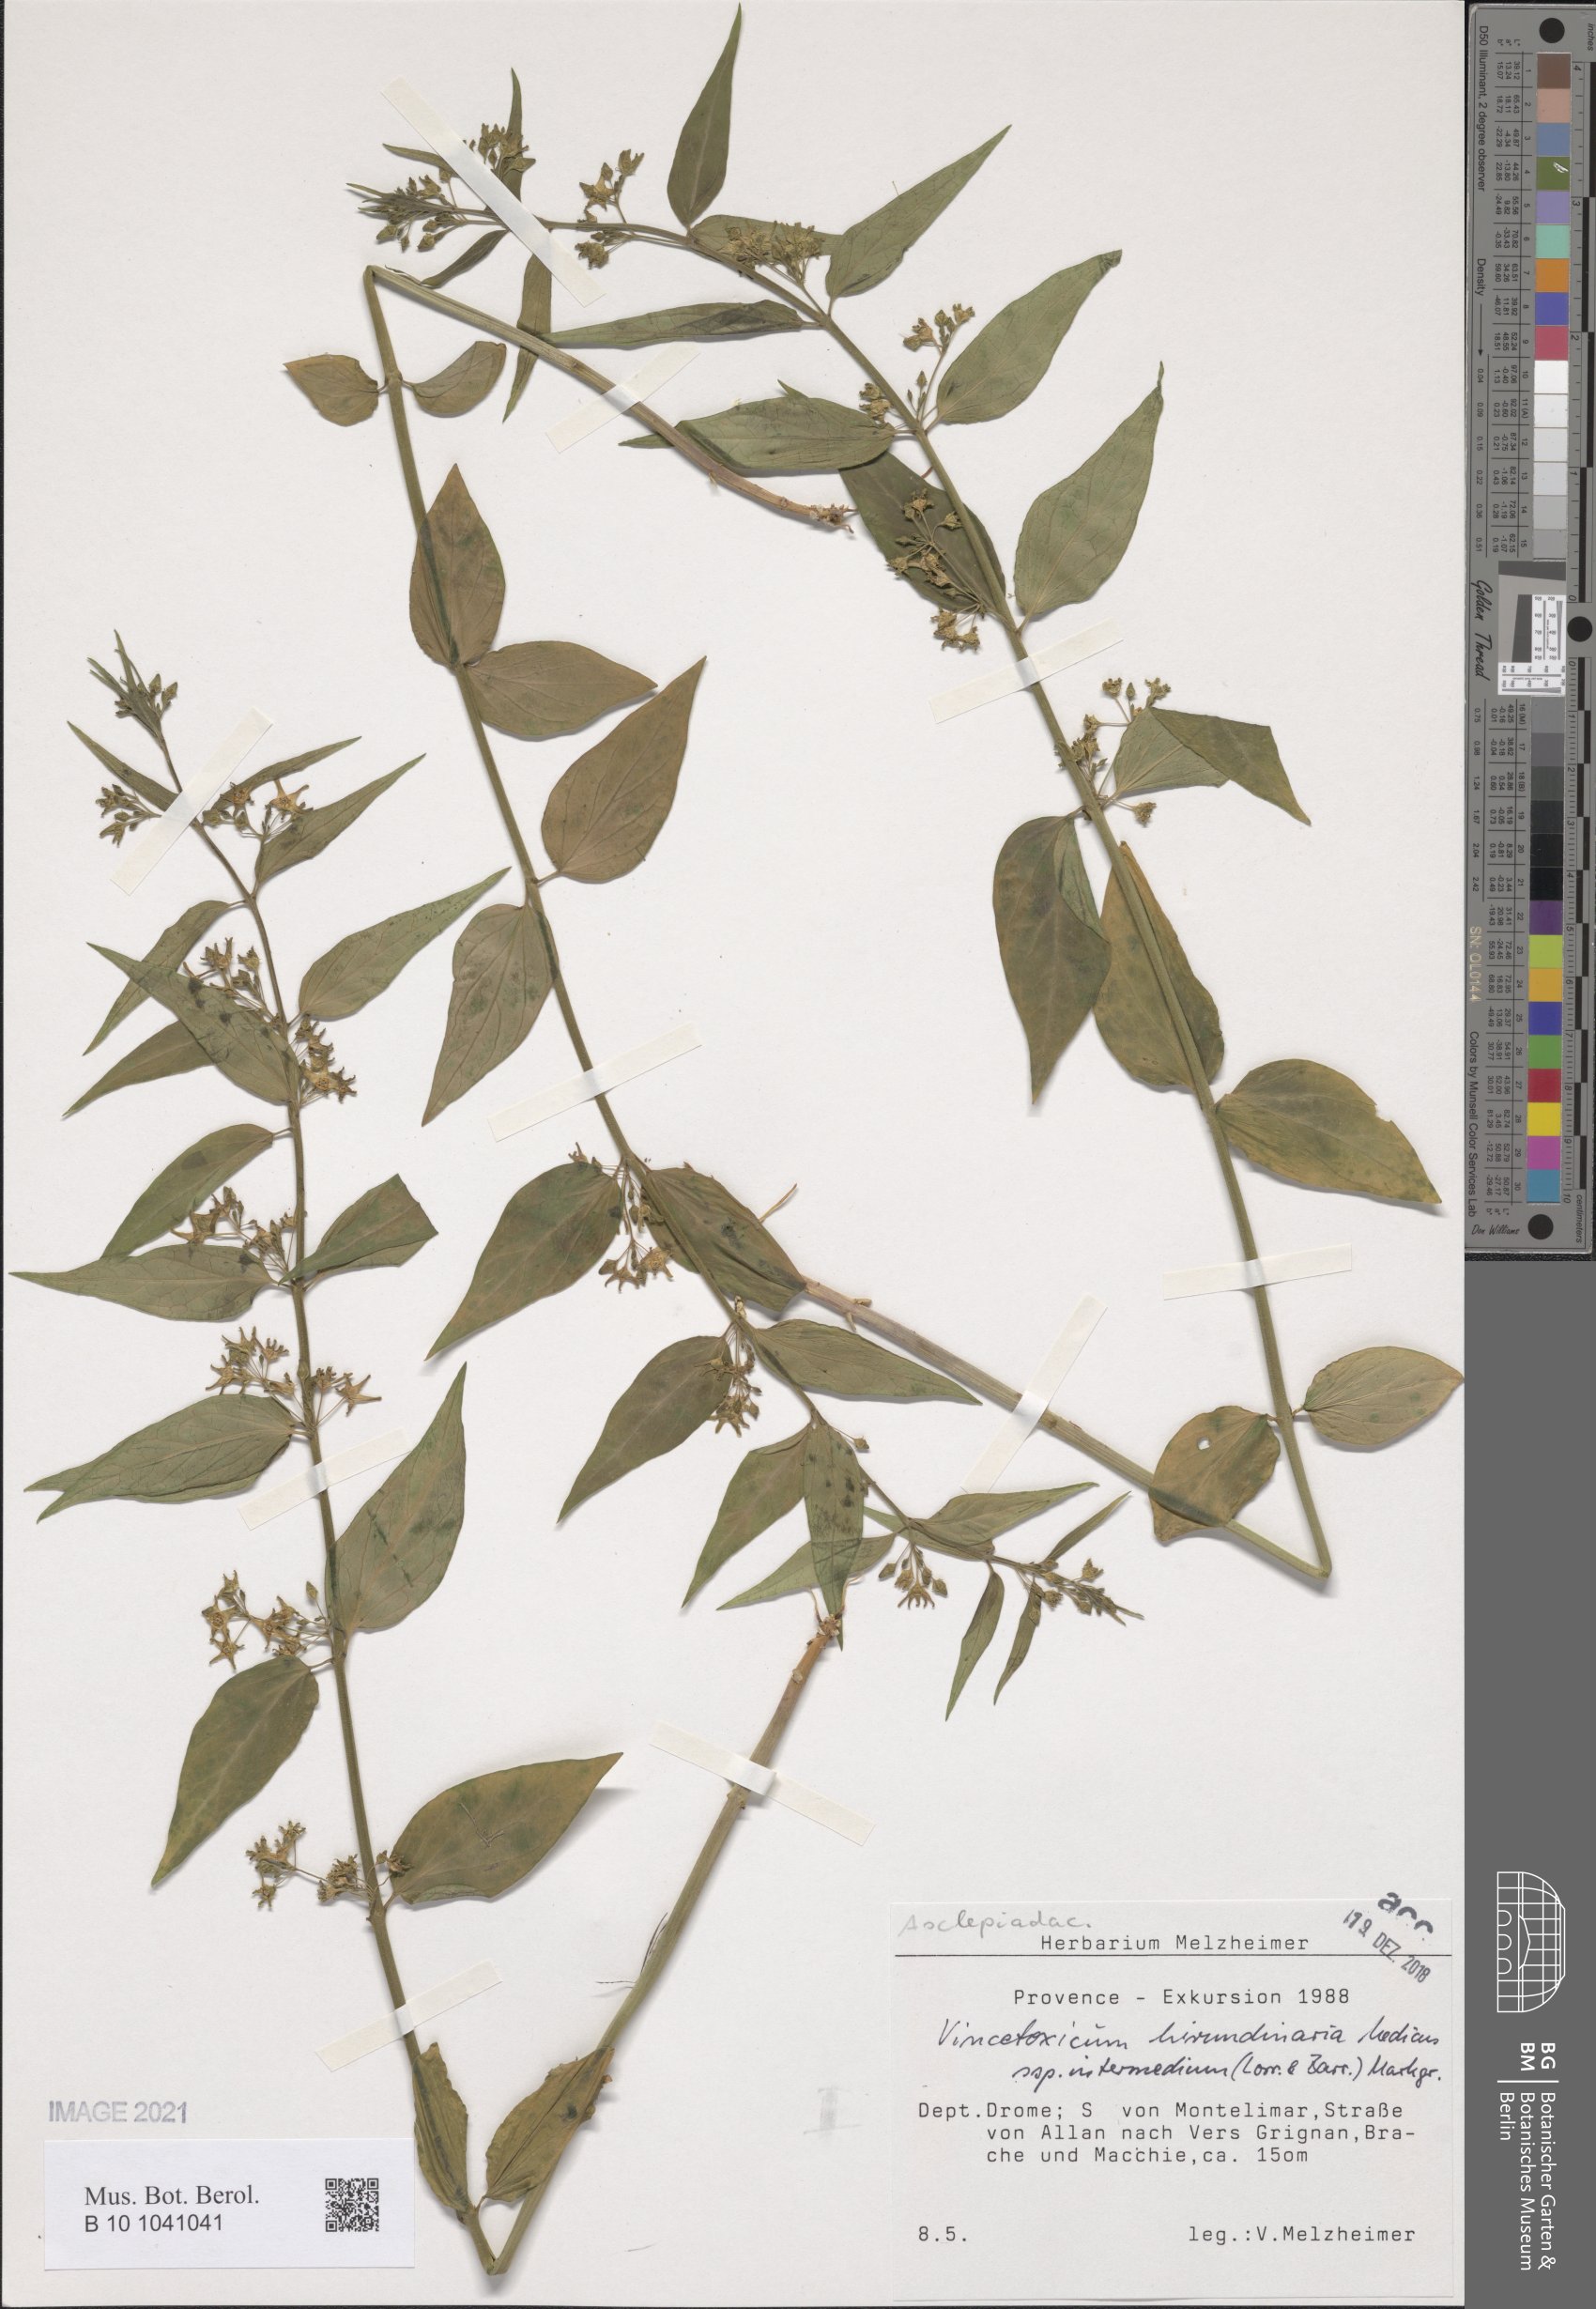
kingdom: Plantae
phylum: Tracheophyta
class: Magnoliopsida
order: Gentianales
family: Apocynaceae
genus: Vincetoxicum
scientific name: Vincetoxicum hirundinaria
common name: White swallowwort
